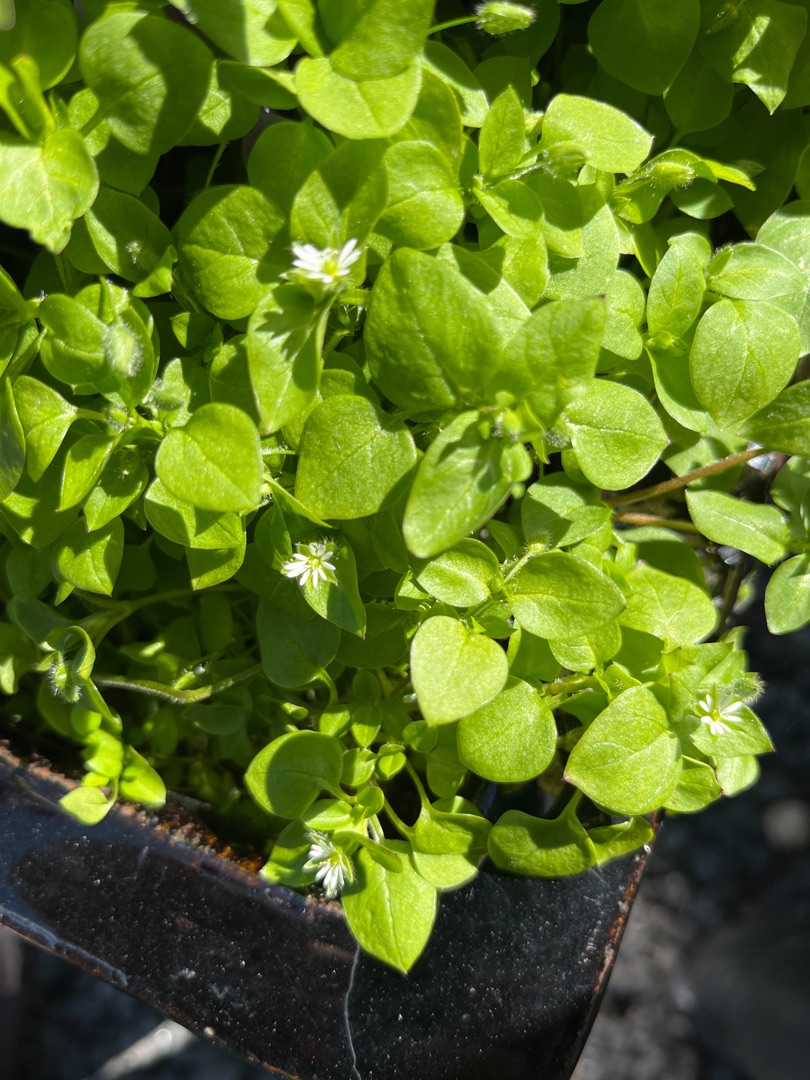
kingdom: Plantae
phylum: Tracheophyta
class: Magnoliopsida
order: Caryophyllales
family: Caryophyllaceae
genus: Stellaria
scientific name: Stellaria media
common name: Almindelig fuglegræs
